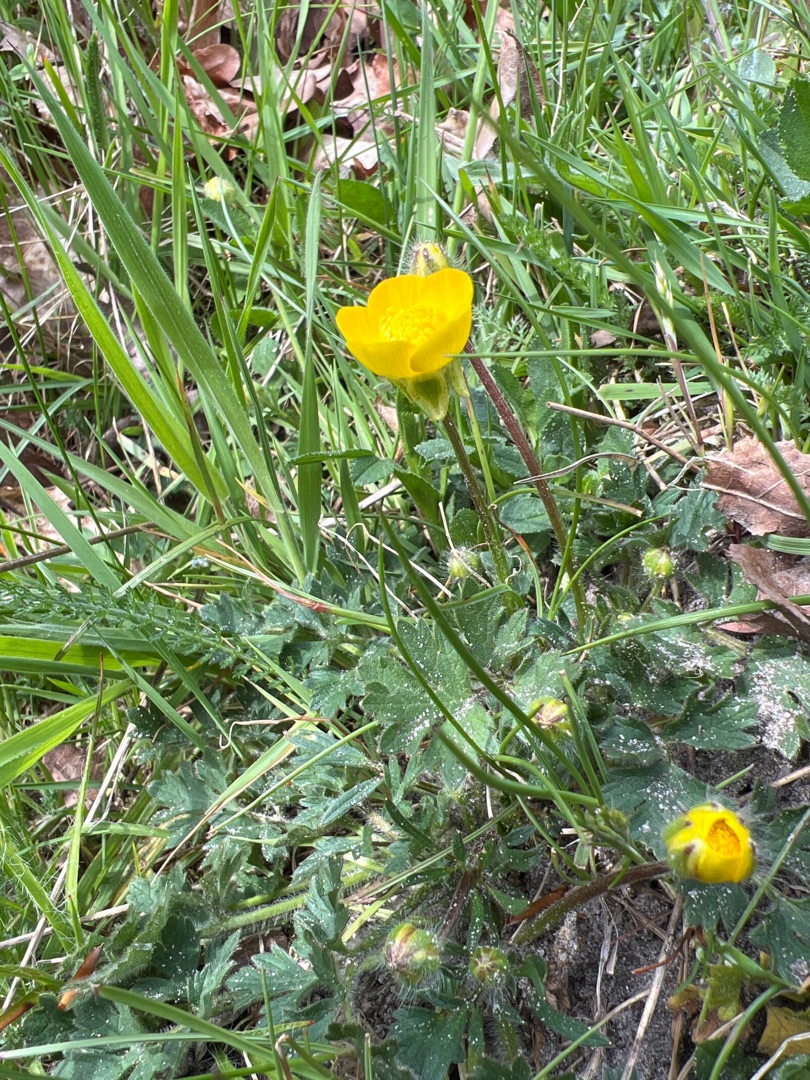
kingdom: Plantae
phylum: Tracheophyta
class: Magnoliopsida
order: Ranunculales
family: Ranunculaceae
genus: Ranunculus
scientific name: Ranunculus bulbosus
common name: Knold-ranunkel
